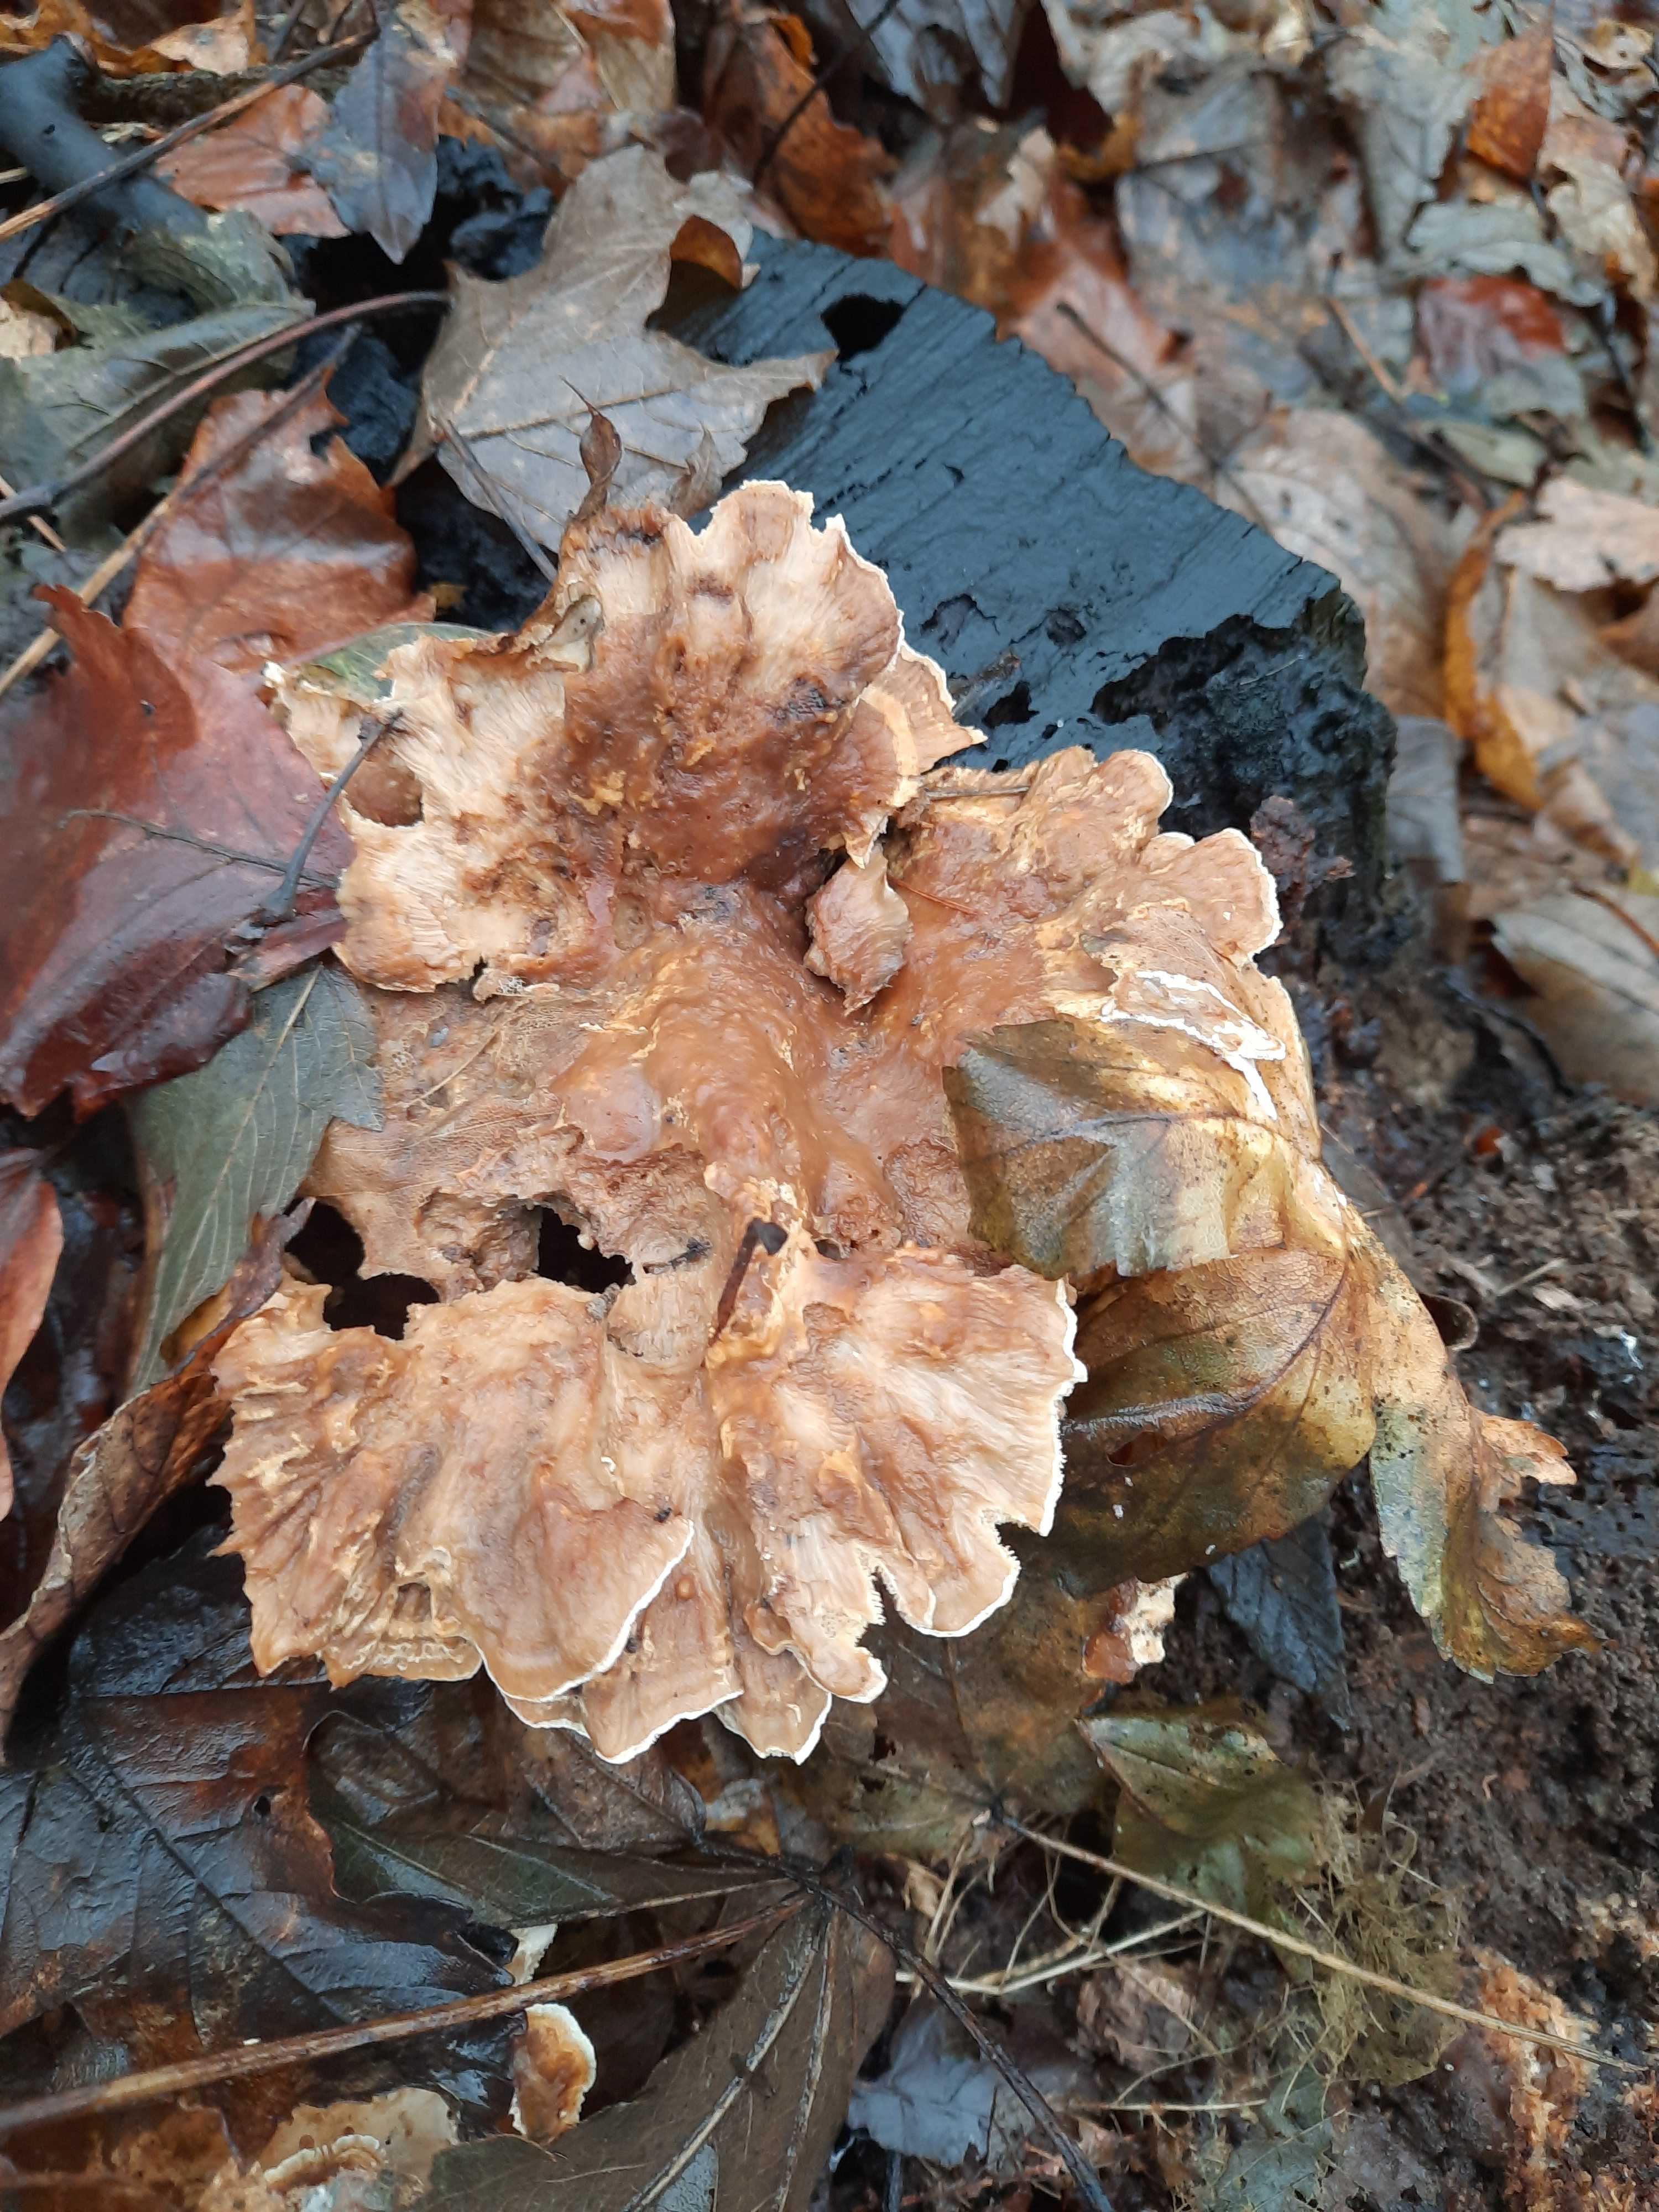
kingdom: Fungi
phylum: Basidiomycota
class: Agaricomycetes
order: Polyporales
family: Phanerochaetaceae
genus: Bjerkandera
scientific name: Bjerkandera fumosa
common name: grågul sodporesvamp
